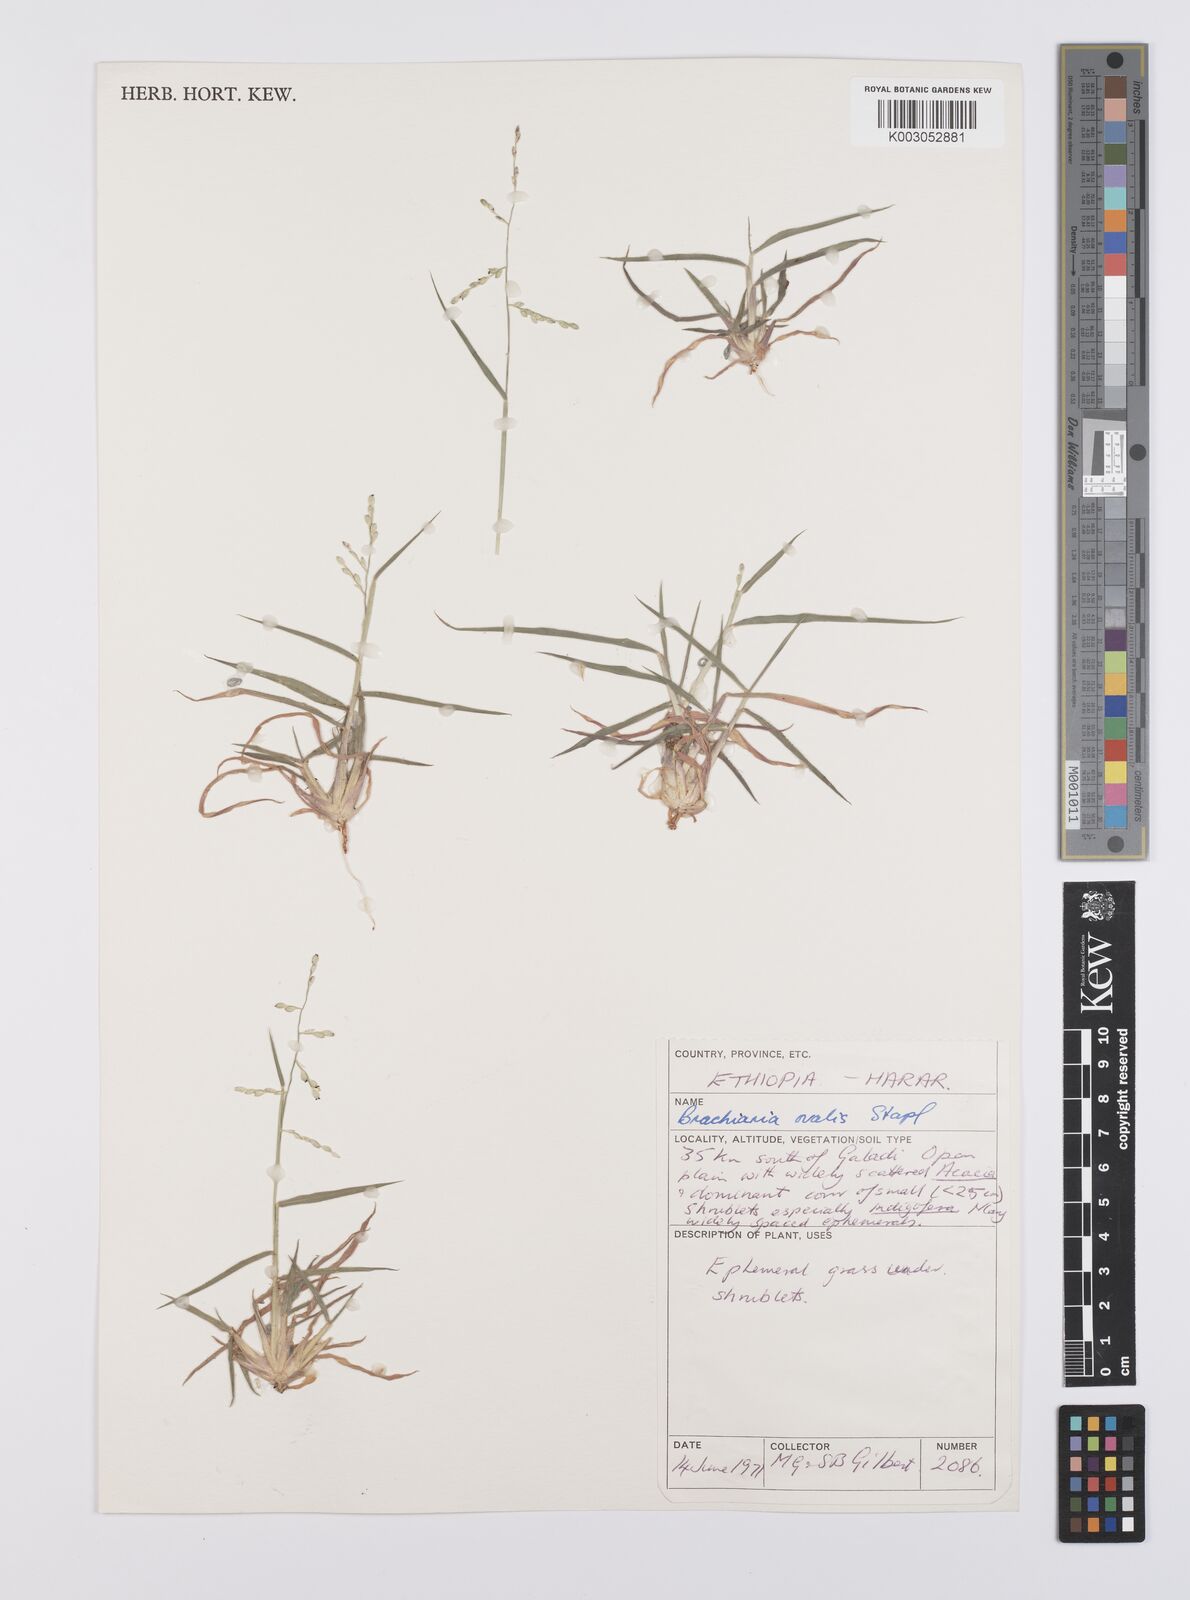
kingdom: Plantae
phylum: Tracheophyta
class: Liliopsida
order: Poales
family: Poaceae
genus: Urochloa
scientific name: Urochloa ovalis
